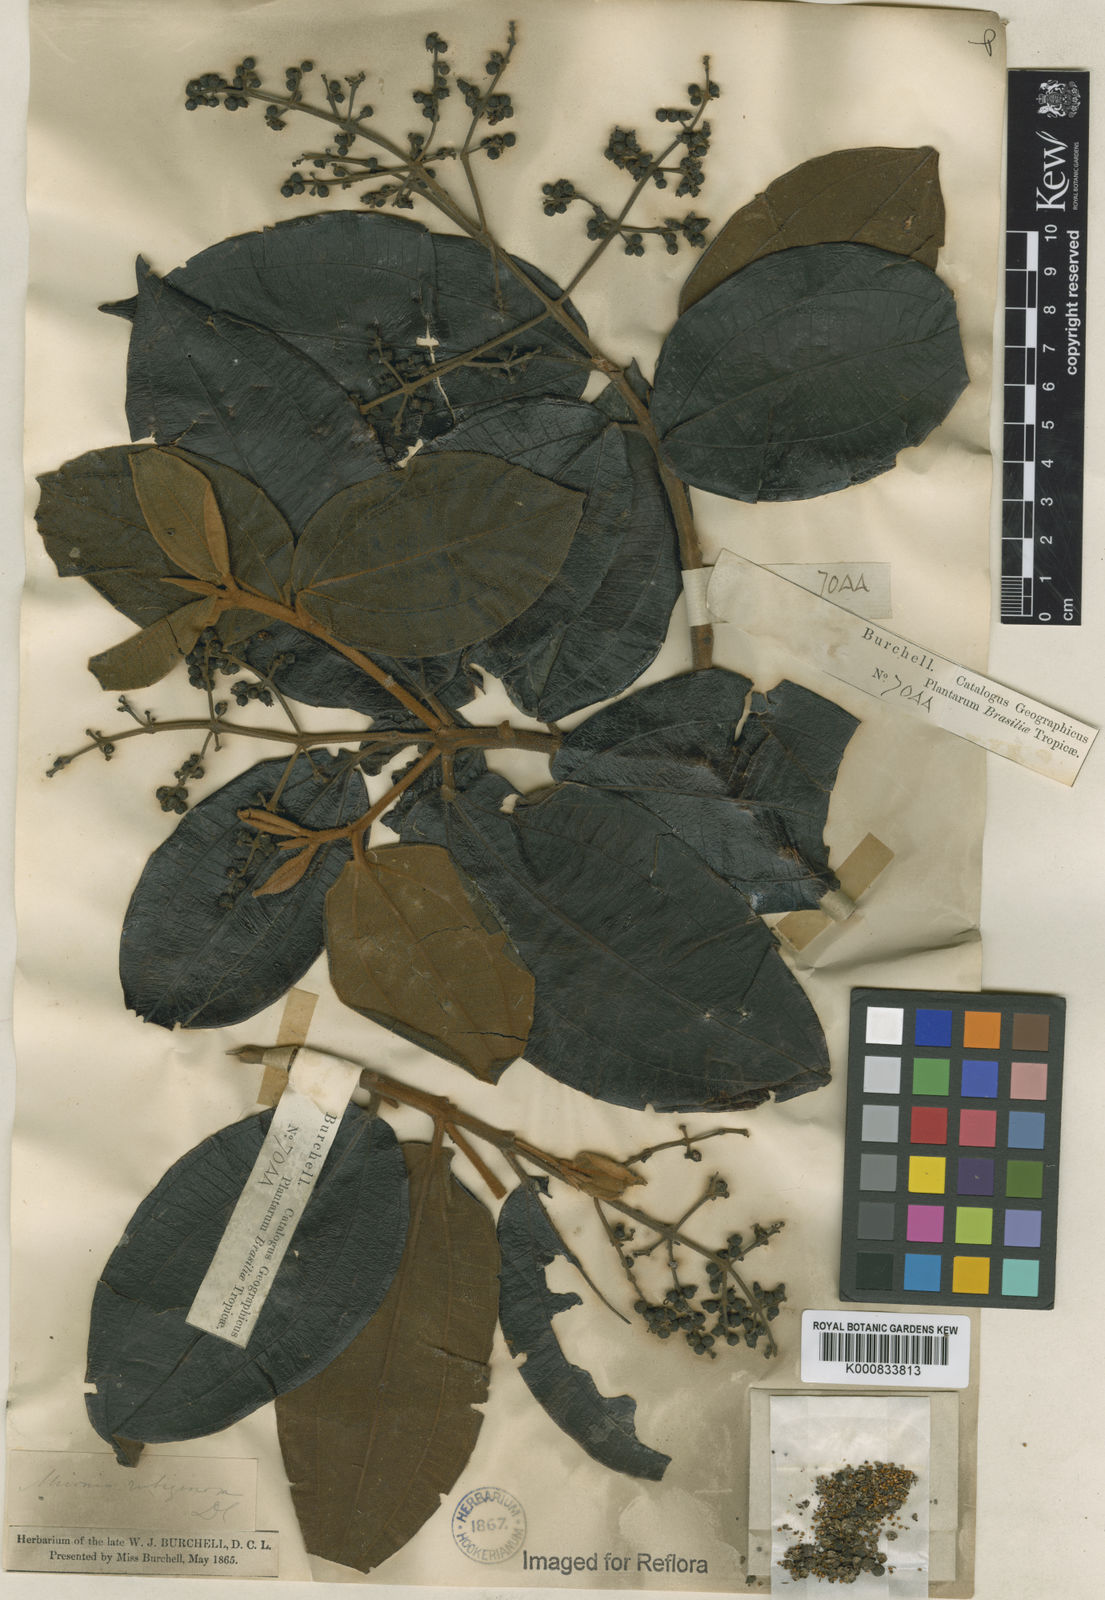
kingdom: Plantae
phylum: Tracheophyta
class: Magnoliopsida
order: Myrtales
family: Melastomataceae
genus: Miconia
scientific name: Miconia rubiginosa
